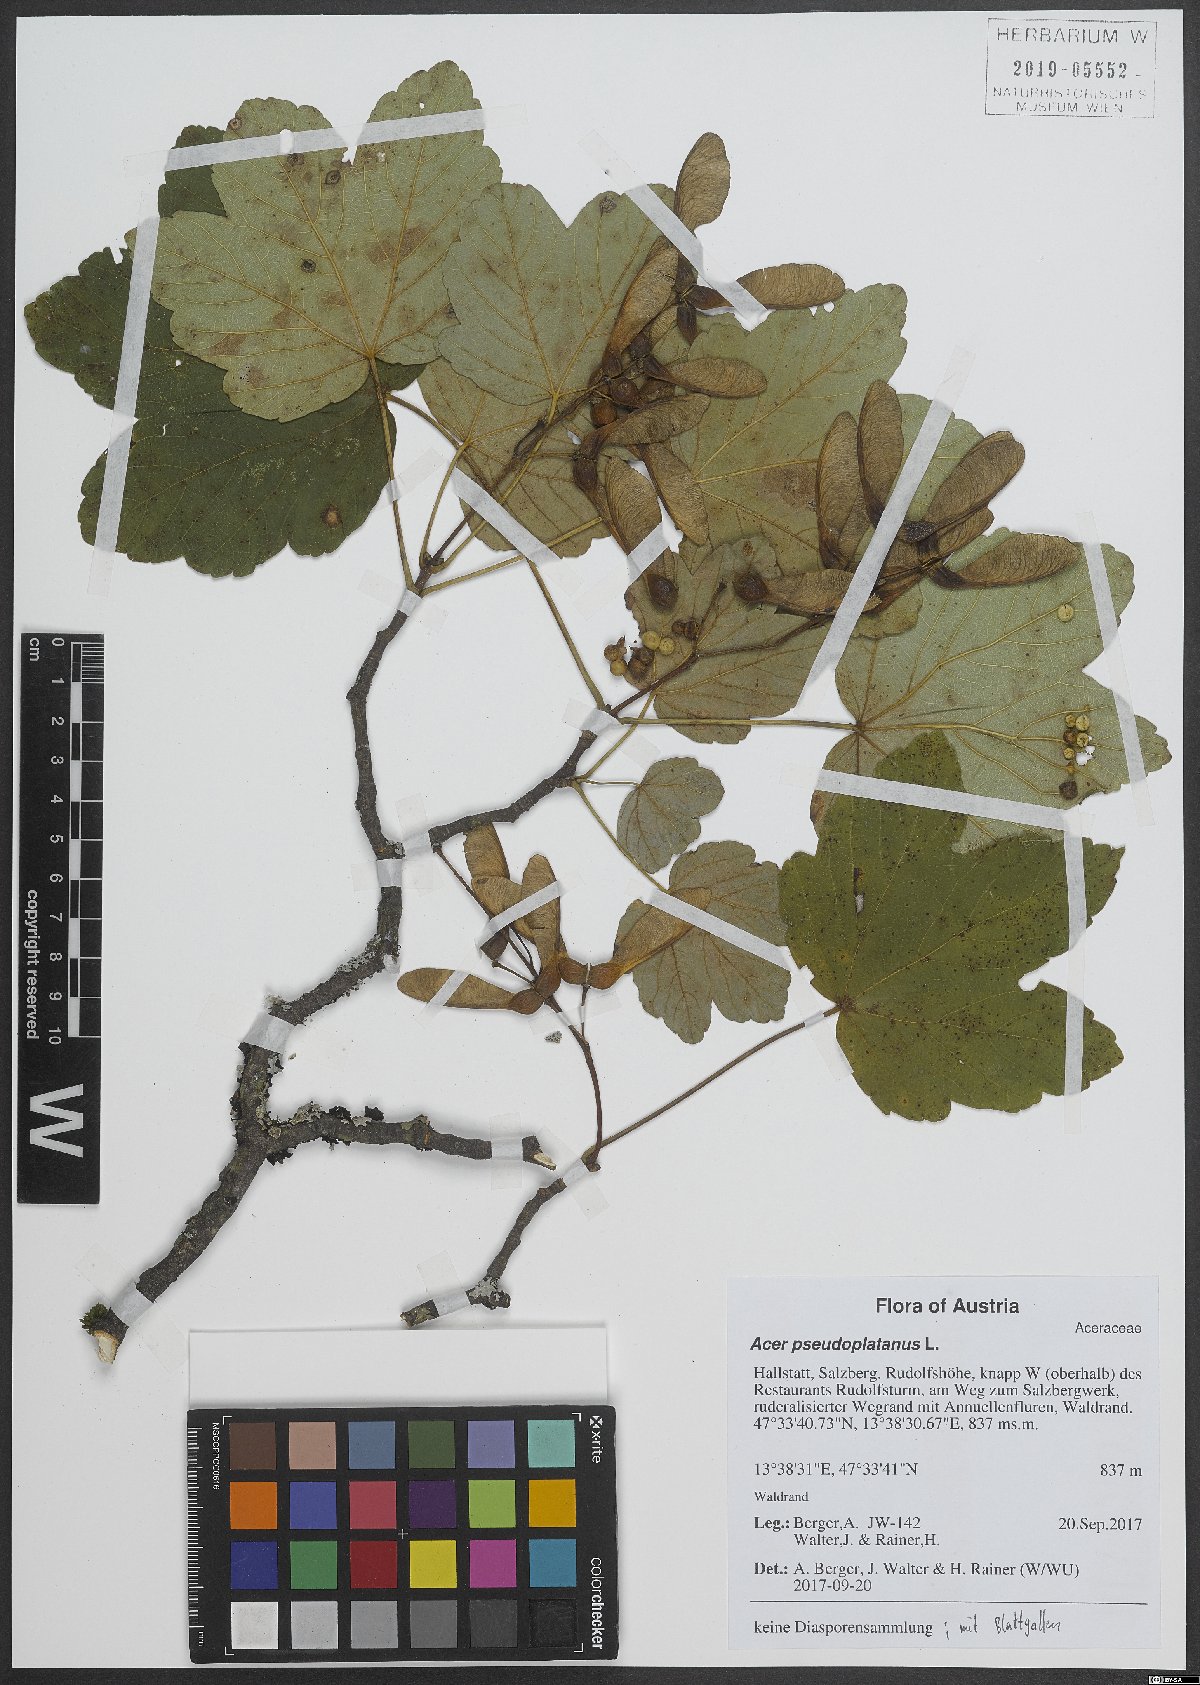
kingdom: Plantae
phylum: Tracheophyta
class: Magnoliopsida
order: Sapindales
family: Sapindaceae
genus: Acer
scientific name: Acer pseudoplatanus
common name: Sycamore
